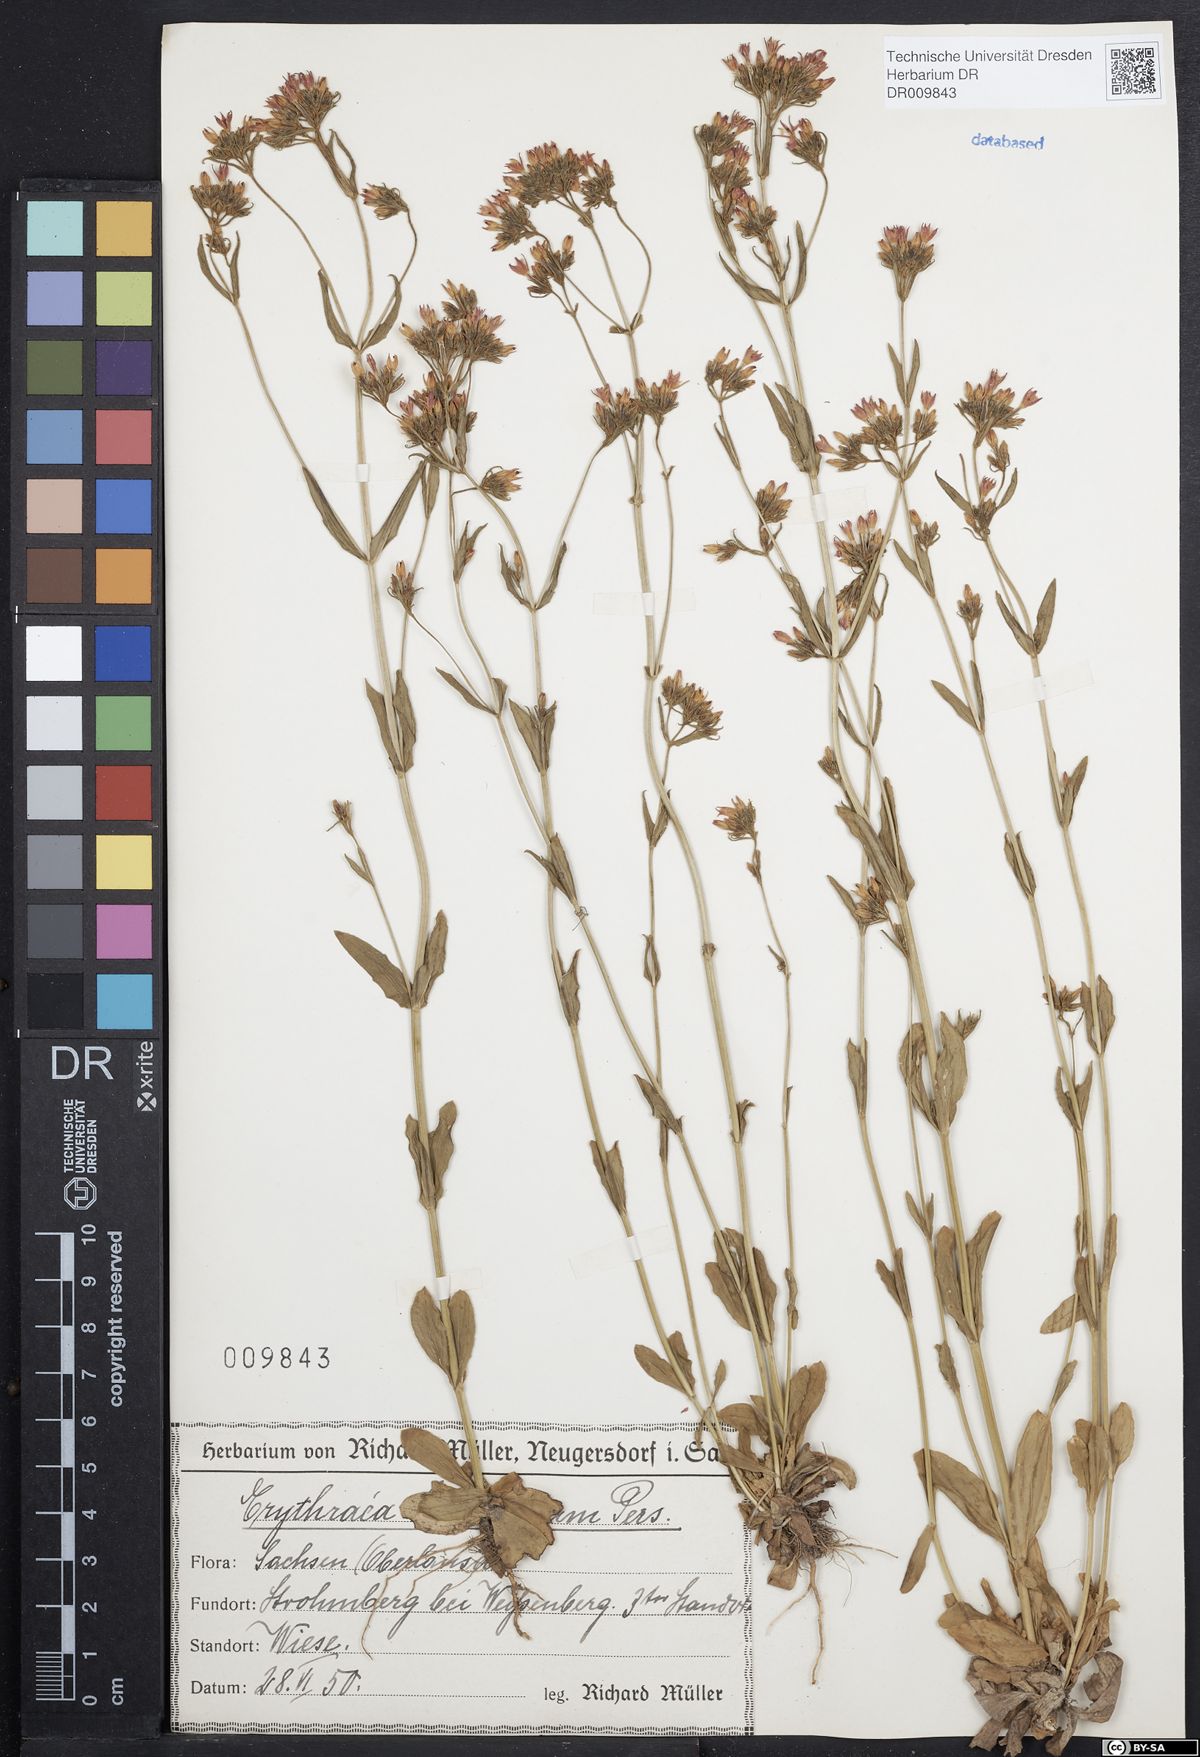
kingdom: Plantae
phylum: Tracheophyta
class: Magnoliopsida
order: Gentianales
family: Gentianaceae
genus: Centaurium
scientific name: Centaurium erythraea
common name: Common centaury
